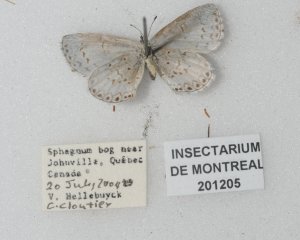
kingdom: Animalia
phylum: Arthropoda
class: Insecta
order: Lepidoptera
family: Lycaenidae
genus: Cyaniris
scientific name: Cyaniris neglecta
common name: Summer Azure
